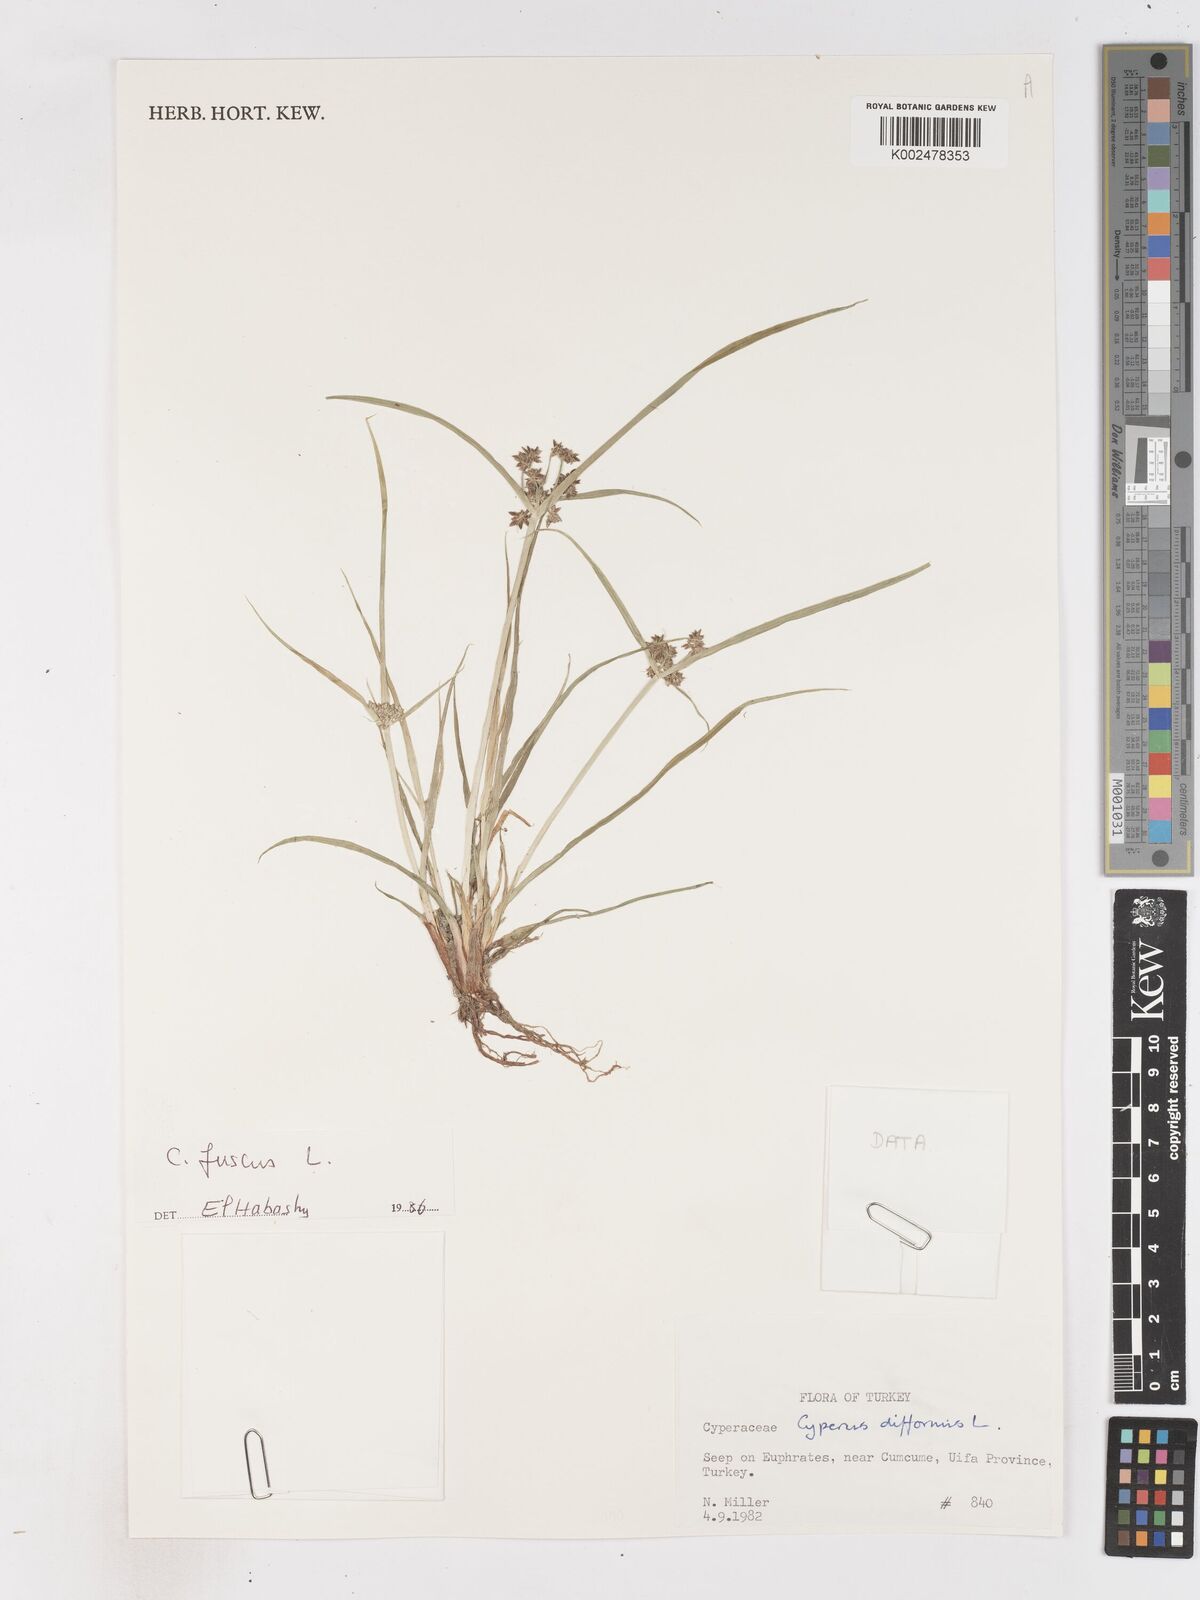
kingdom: Plantae
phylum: Tracheophyta
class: Liliopsida
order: Poales
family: Cyperaceae
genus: Cyperus
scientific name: Cyperus fuscus
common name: Brown galingale
